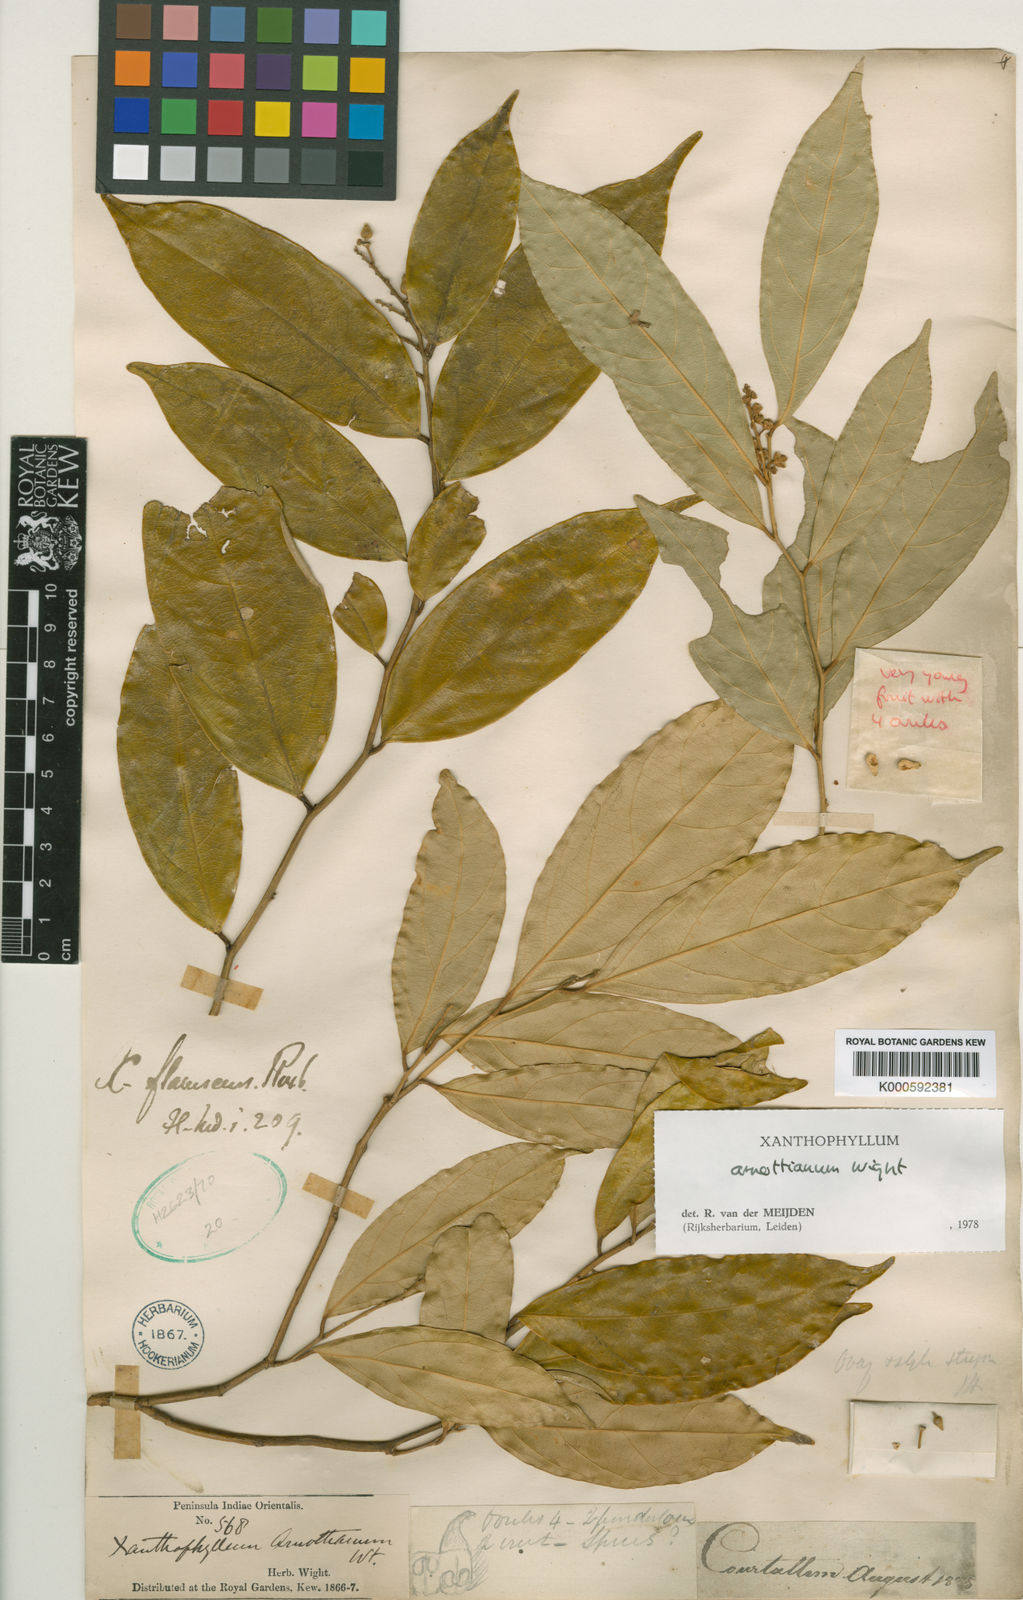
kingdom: Plantae
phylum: Tracheophyta
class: Magnoliopsida
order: Fabales
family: Polygalaceae
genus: Xanthophyllum
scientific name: Xanthophyllum flavescens
